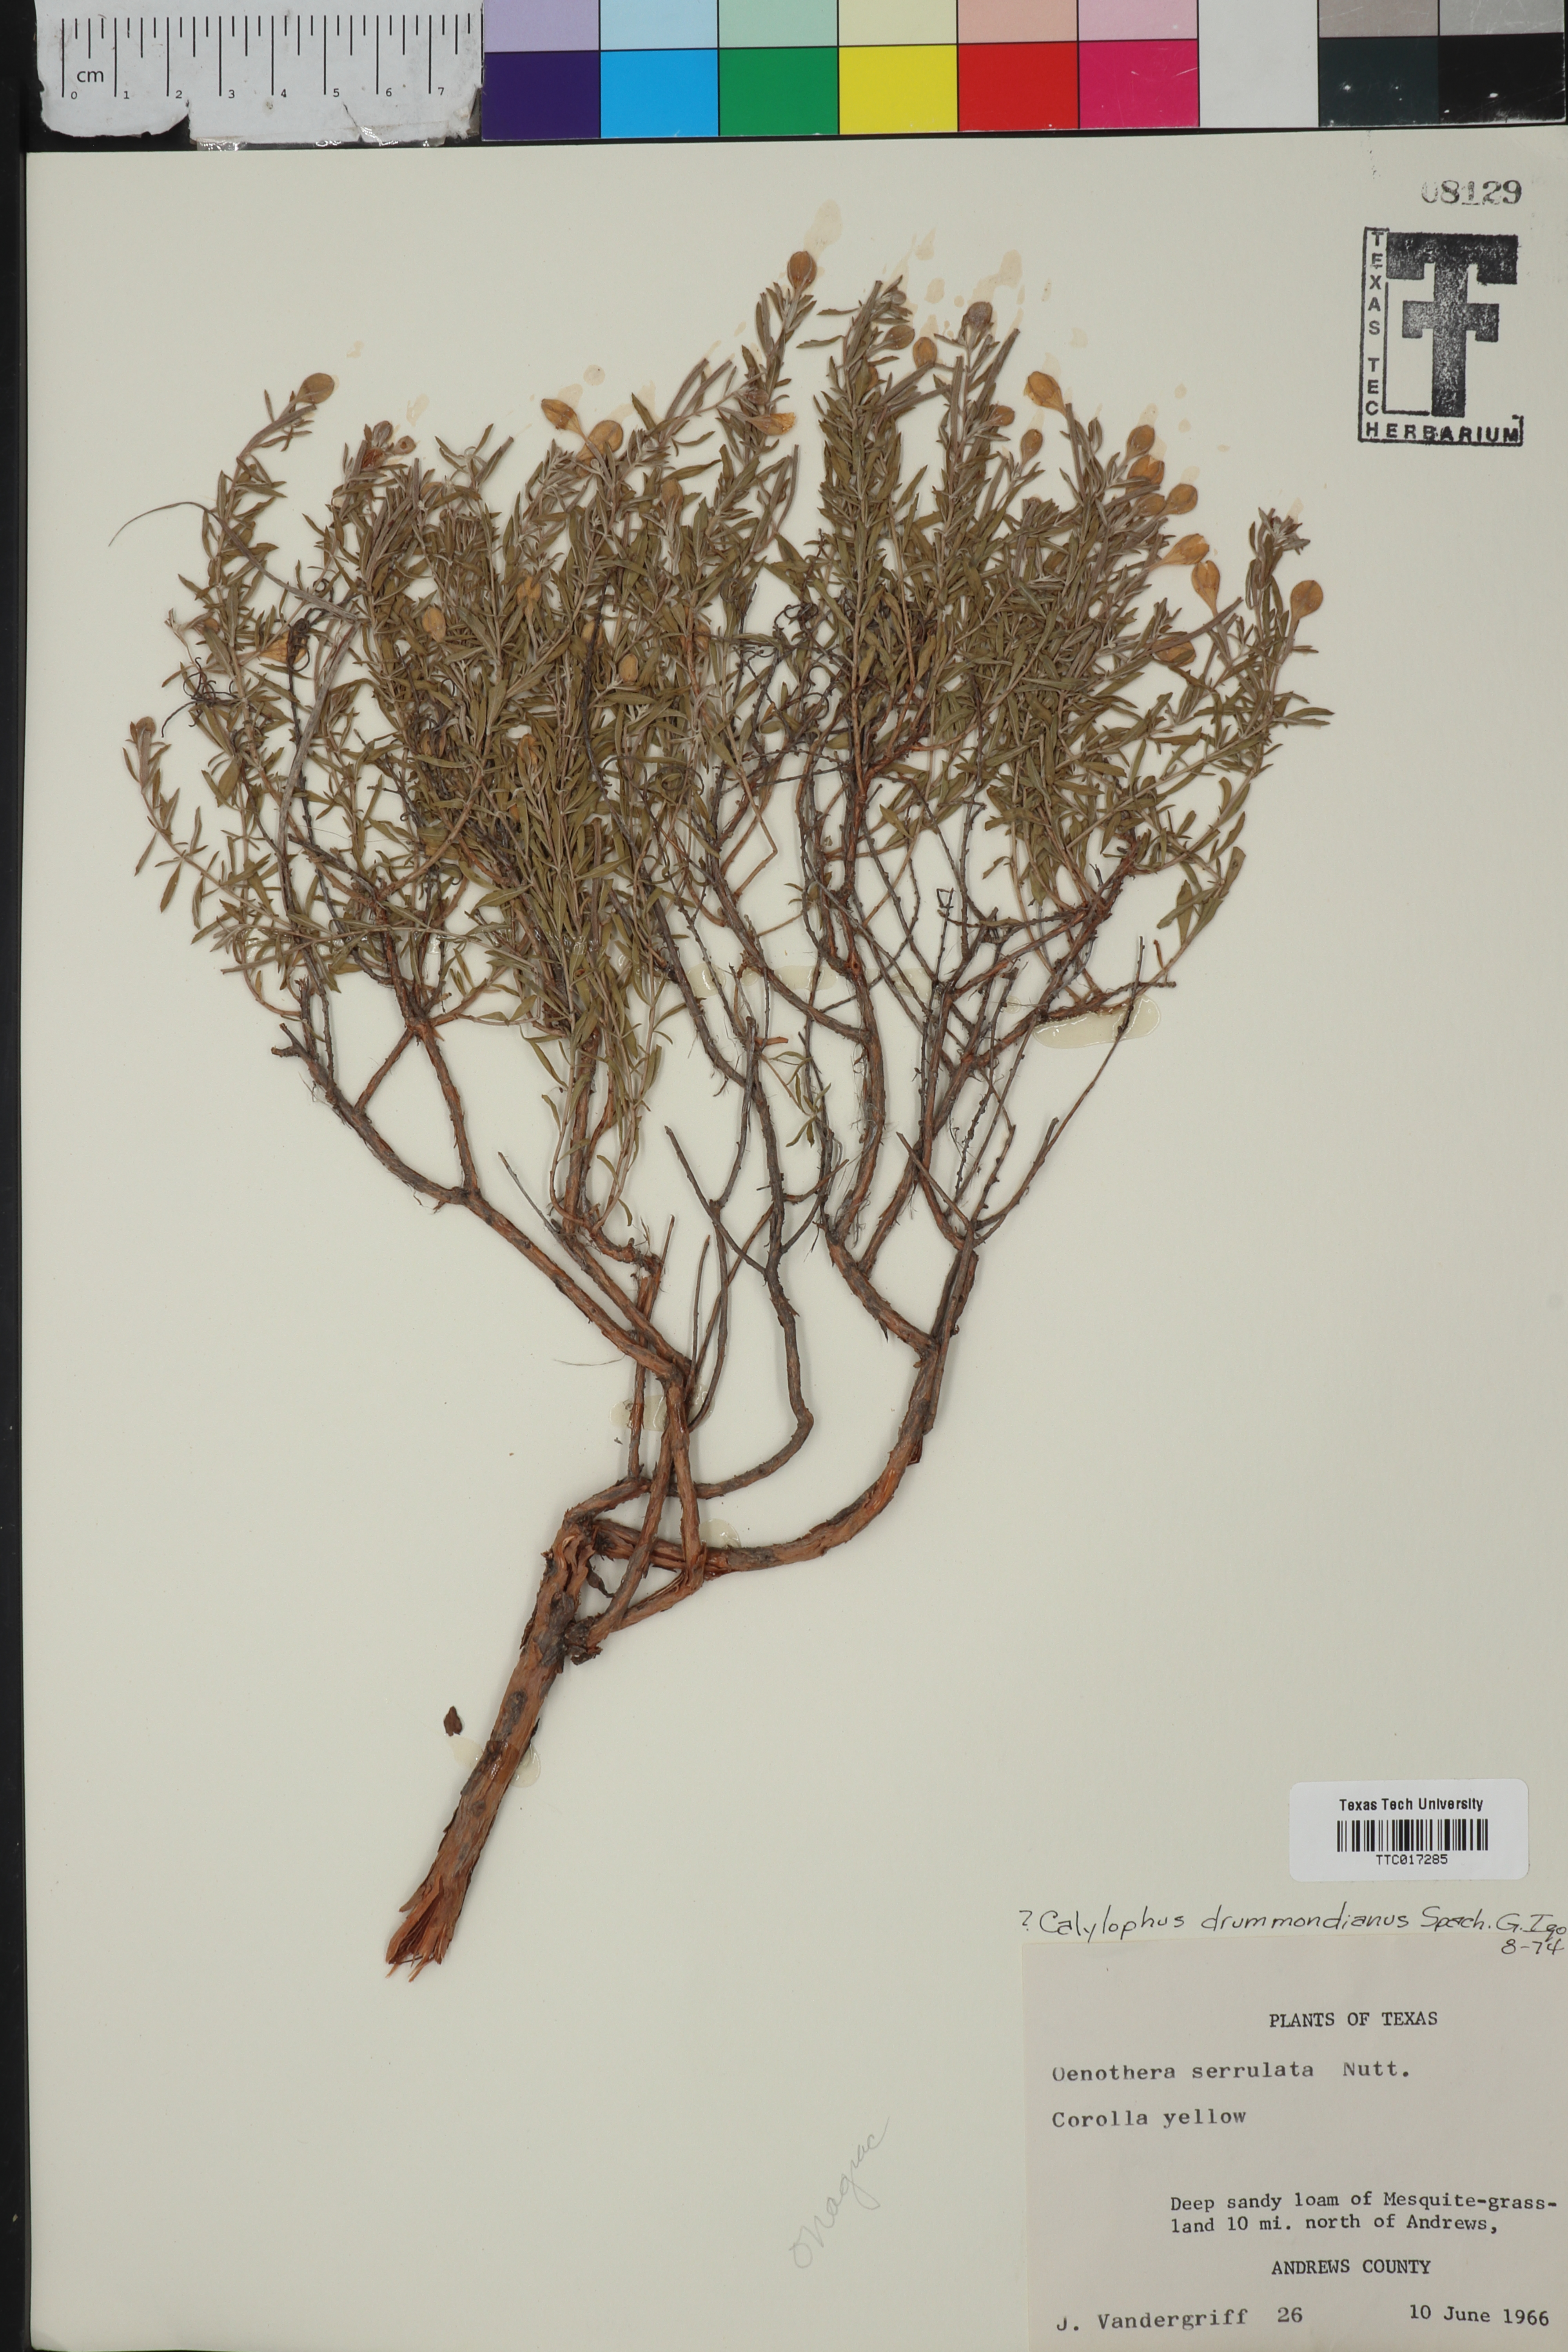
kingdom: Plantae
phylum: Tracheophyta
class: Magnoliopsida
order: Myrtales
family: Onagraceae
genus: Oenothera
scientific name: Oenothera serrulata
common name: Half-shrub calylophus
